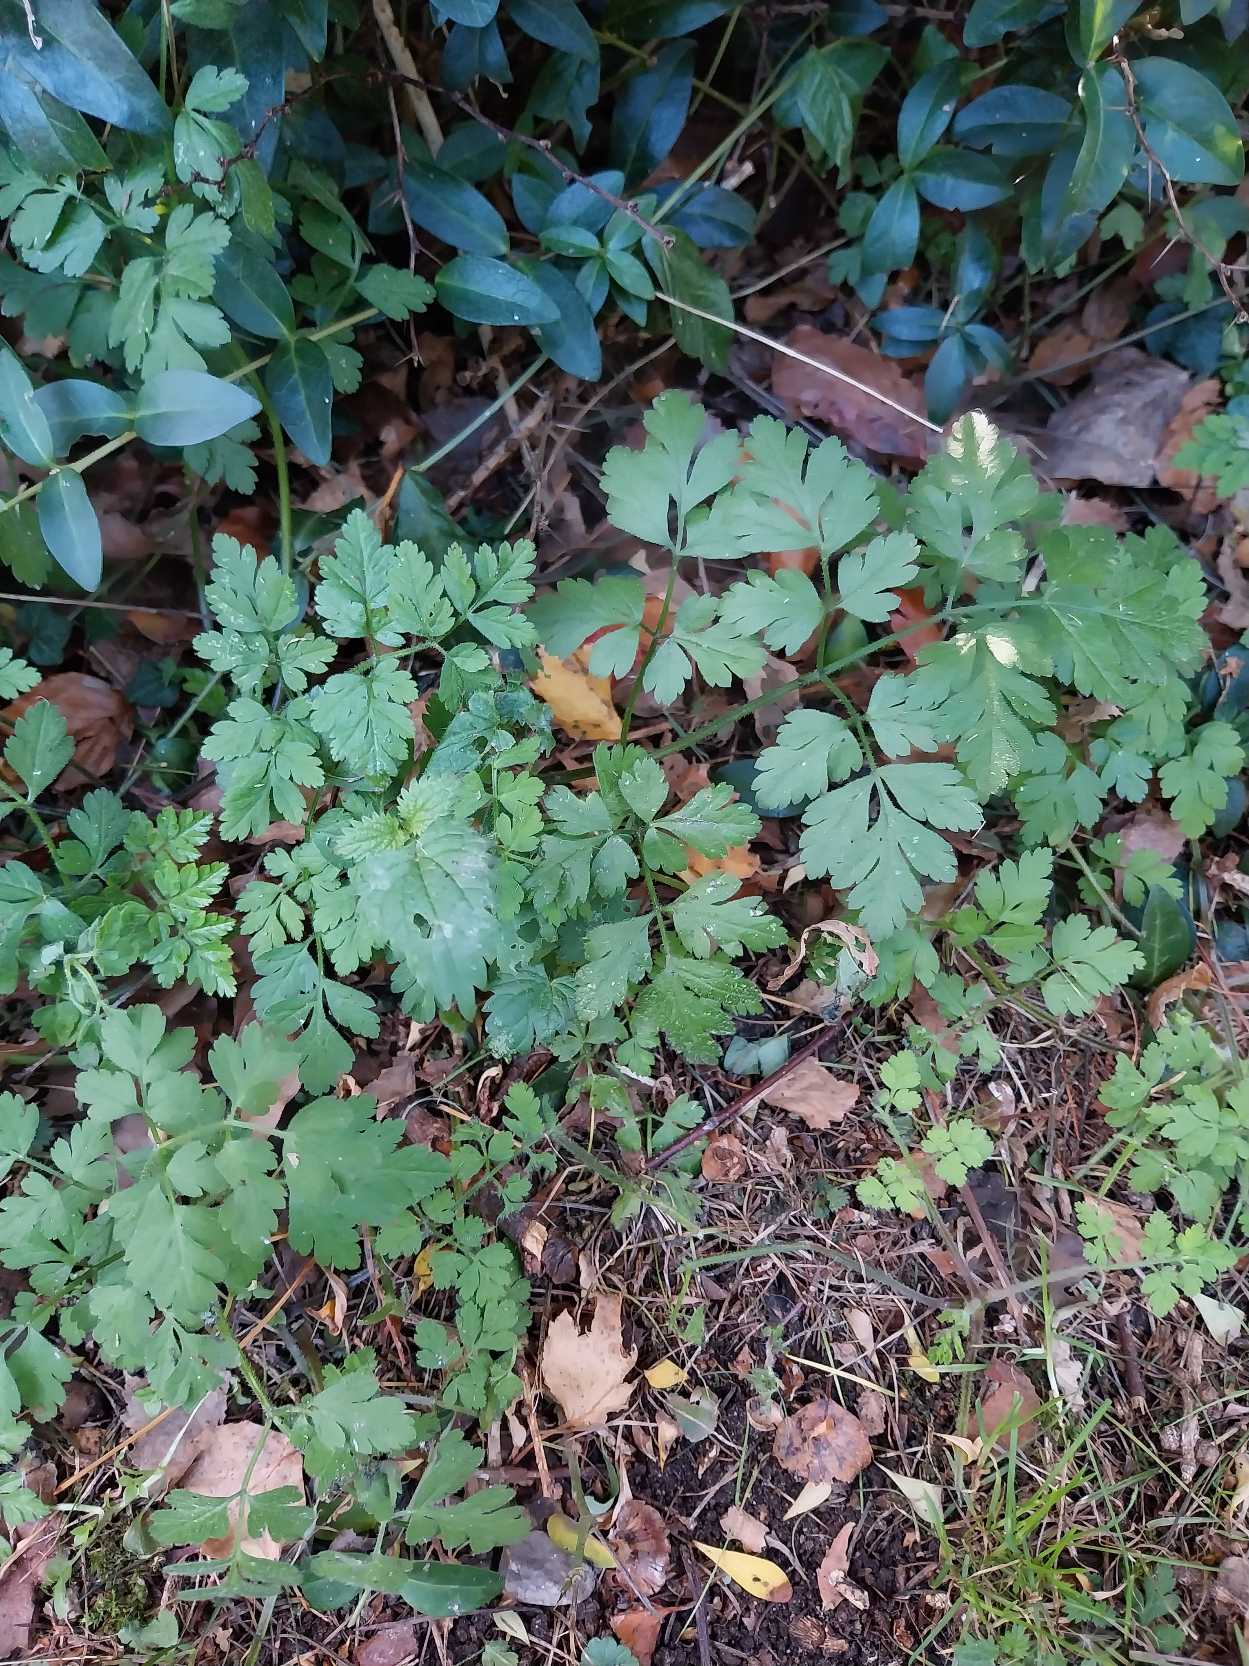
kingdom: Plantae
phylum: Tracheophyta
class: Magnoliopsida
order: Apiales
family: Apiaceae
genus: Chaerophyllum
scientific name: Chaerophyllum temulum
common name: Almindelig hulsvøb
